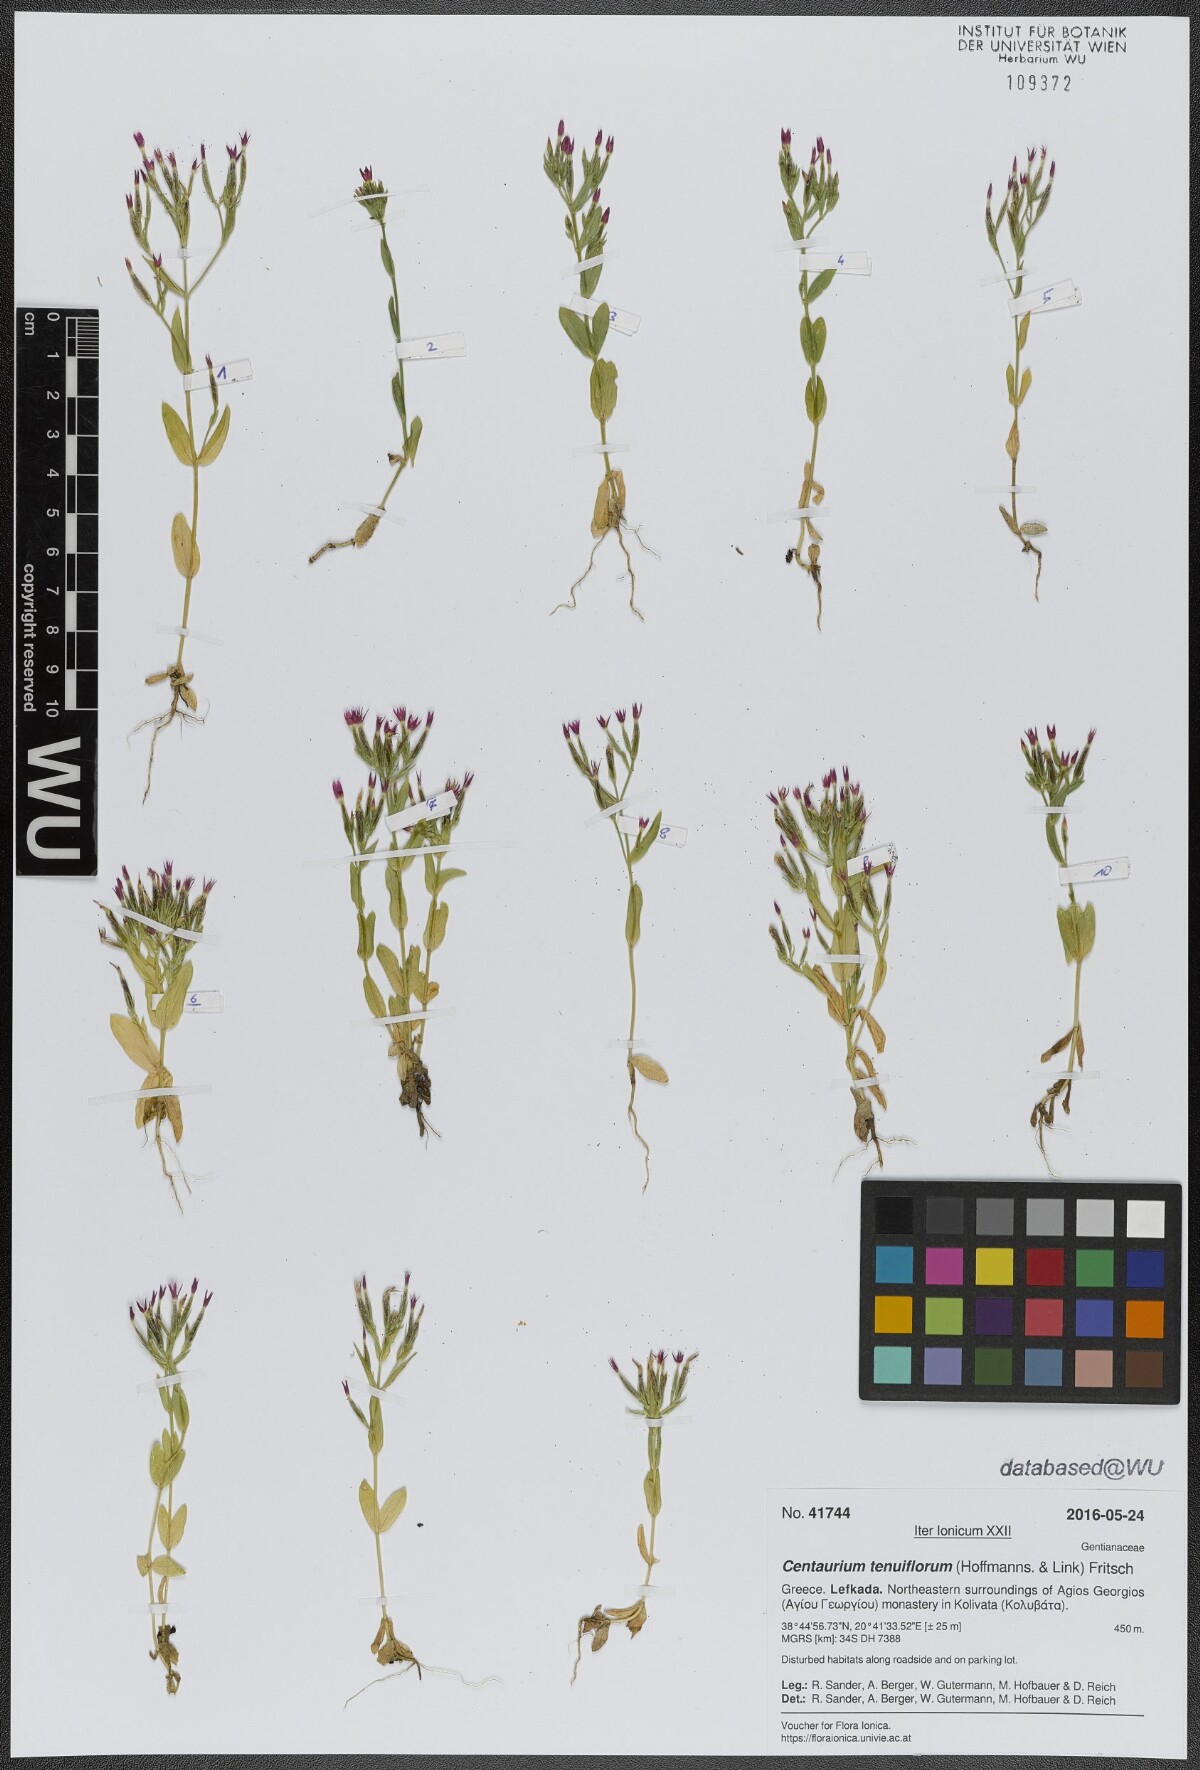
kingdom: Plantae
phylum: Tracheophyta
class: Magnoliopsida
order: Gentianales
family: Gentianaceae
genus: Centaurium
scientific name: Centaurium tenuiflorum
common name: Slender centaury
